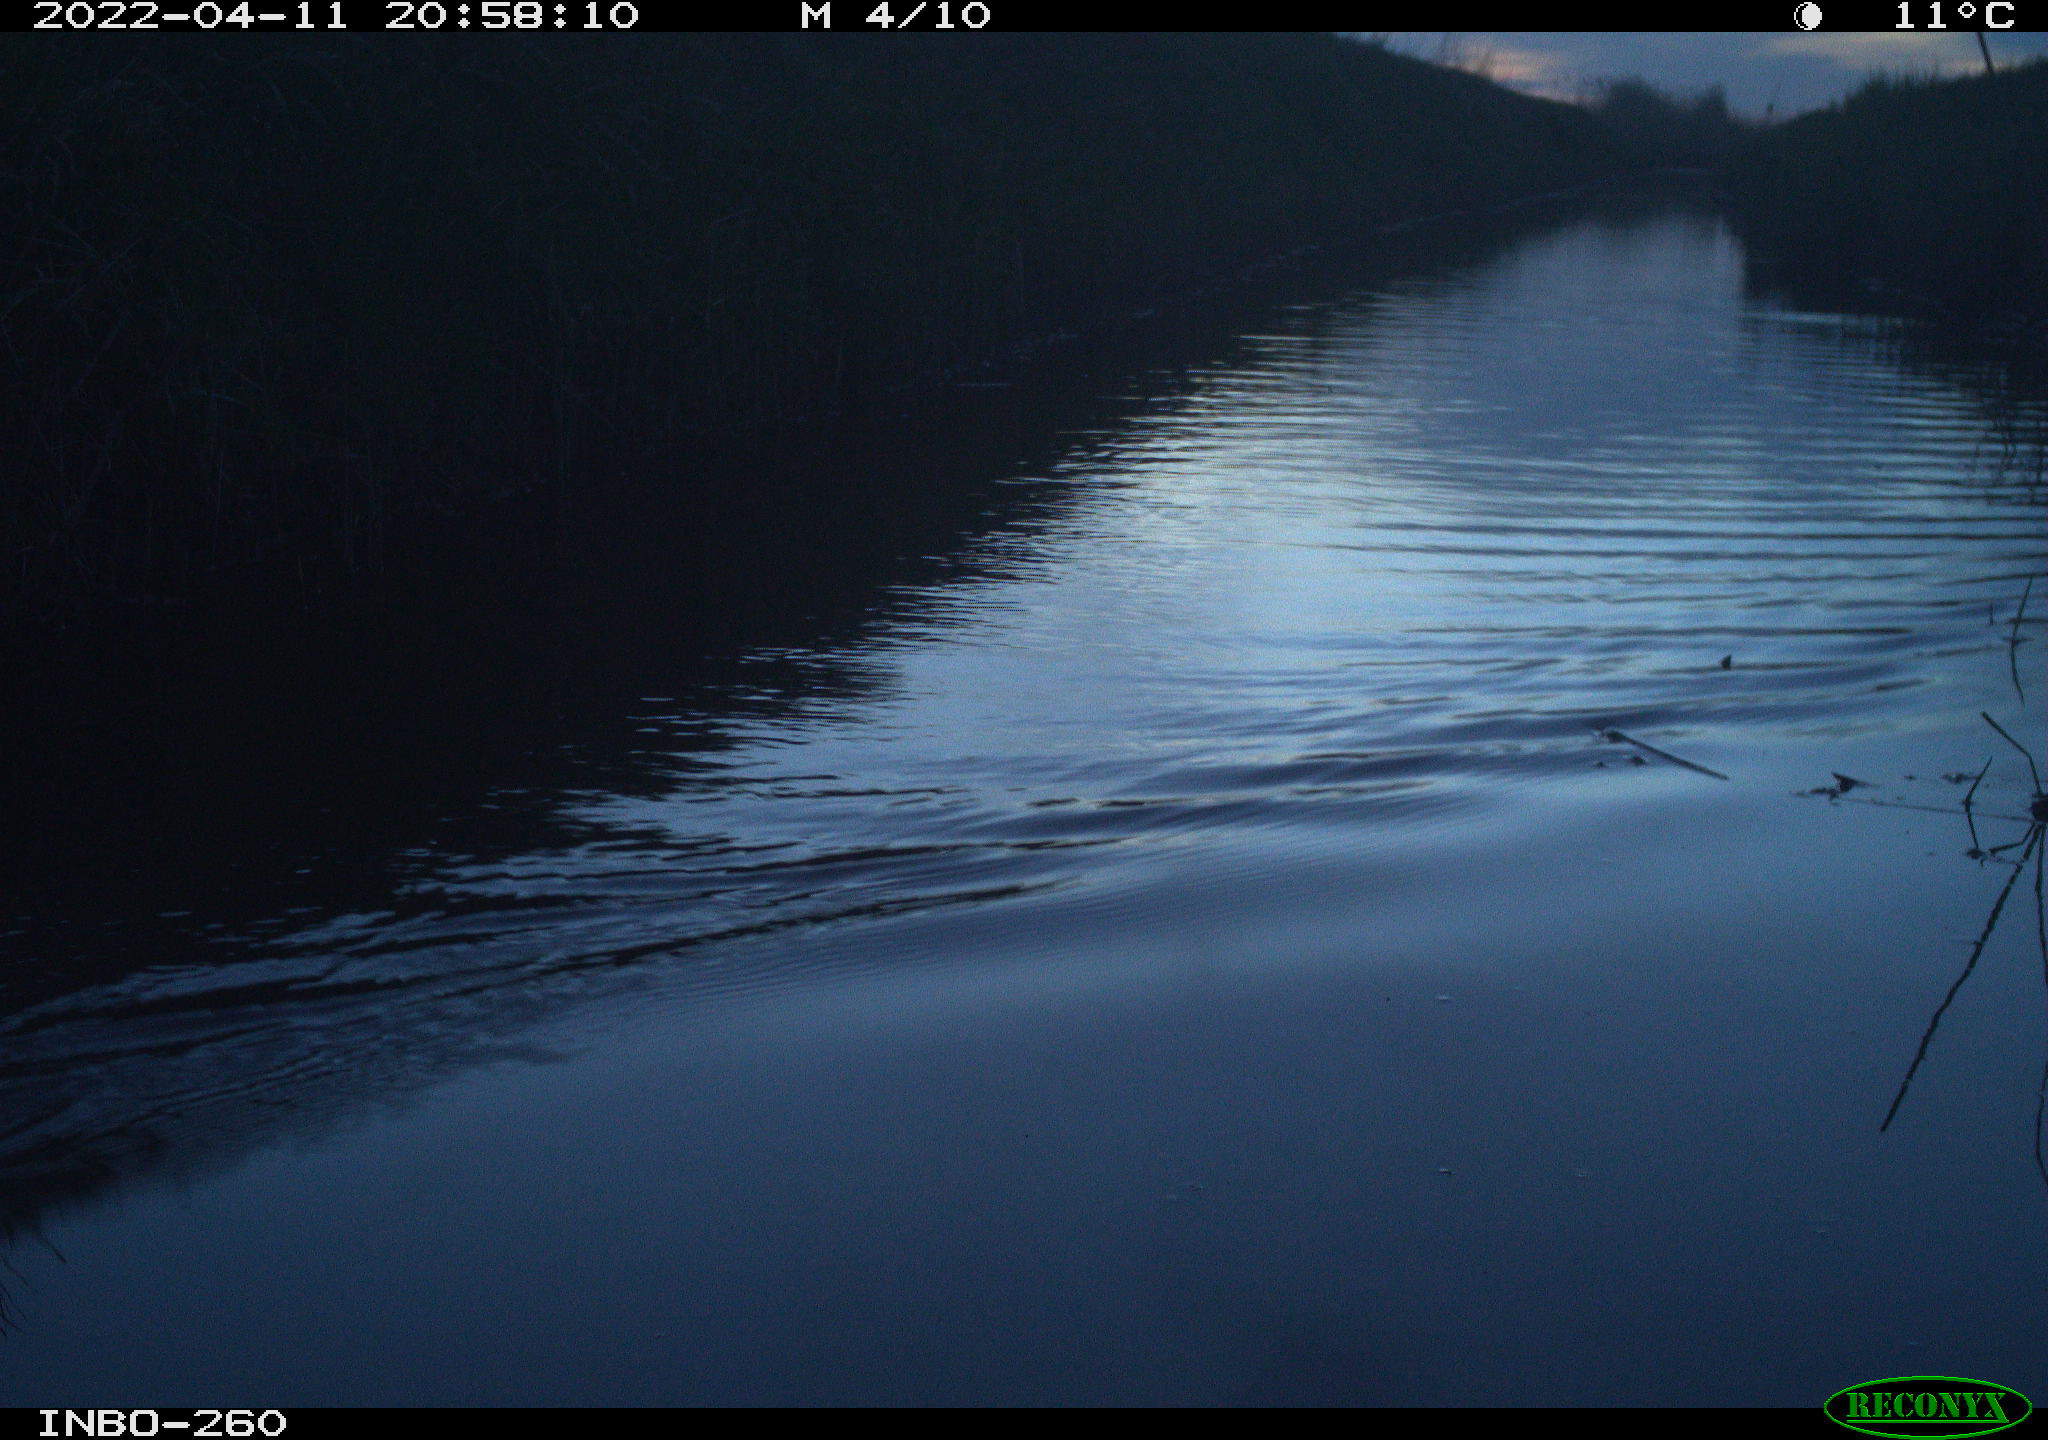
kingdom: Animalia
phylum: Chordata
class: Aves
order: Gruiformes
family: Rallidae
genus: Fulica
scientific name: Fulica atra
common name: Eurasian coot
